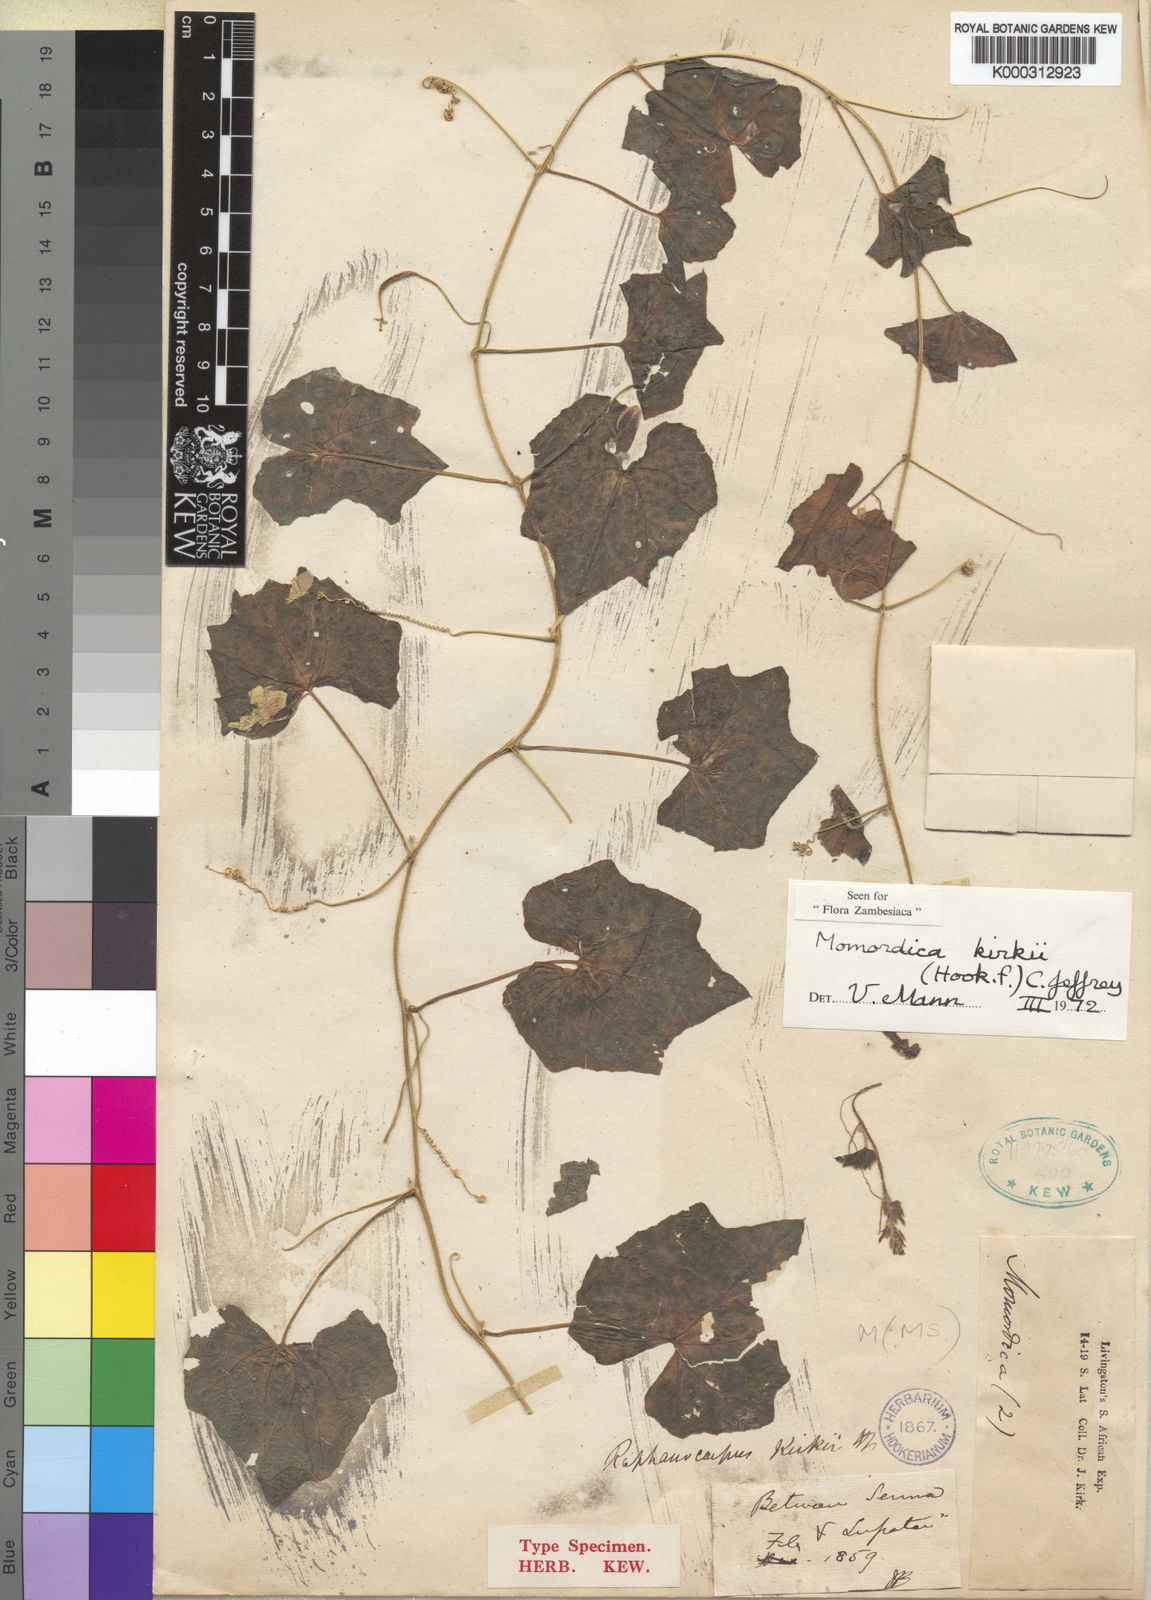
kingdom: Plantae
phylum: Tracheophyta
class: Magnoliopsida
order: Cucurbitales
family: Cucurbitaceae
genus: Momordica
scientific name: Momordica kirkii
